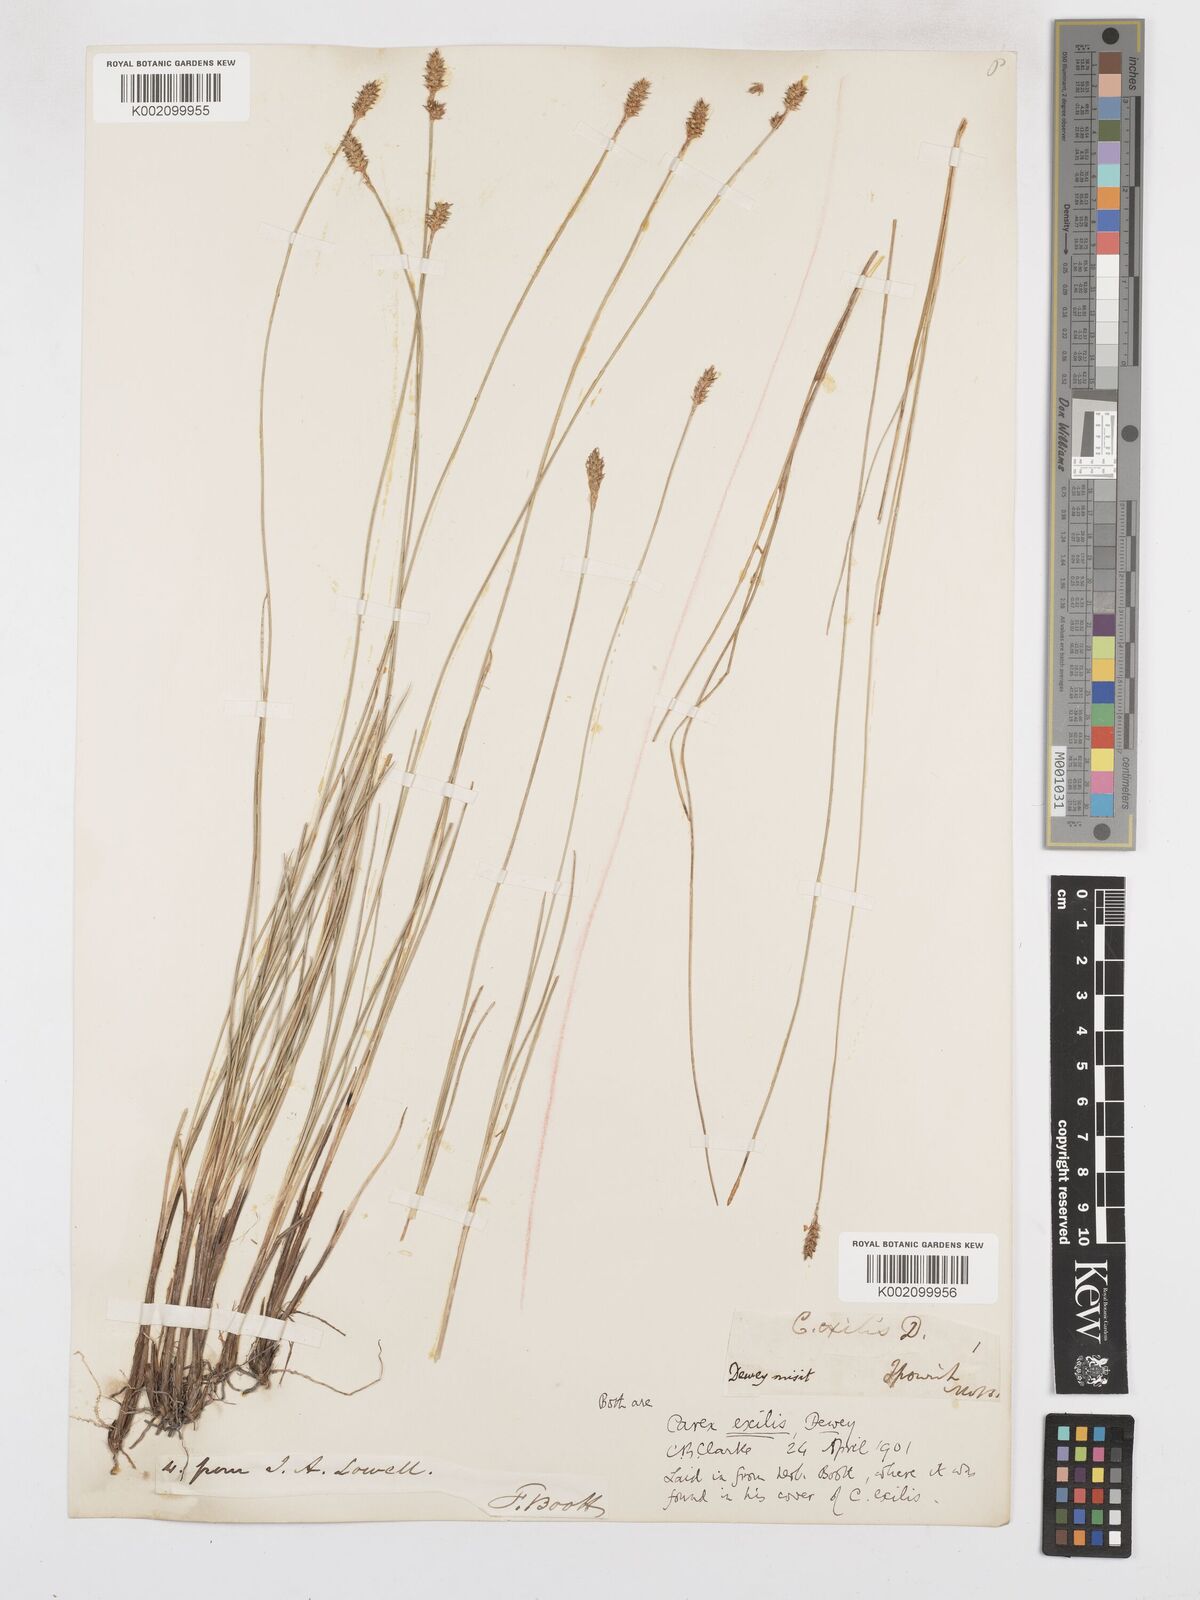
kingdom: Plantae
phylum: Tracheophyta
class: Liliopsida
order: Poales
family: Cyperaceae
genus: Carex
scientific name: Carex exilis
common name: Coastal sedge
